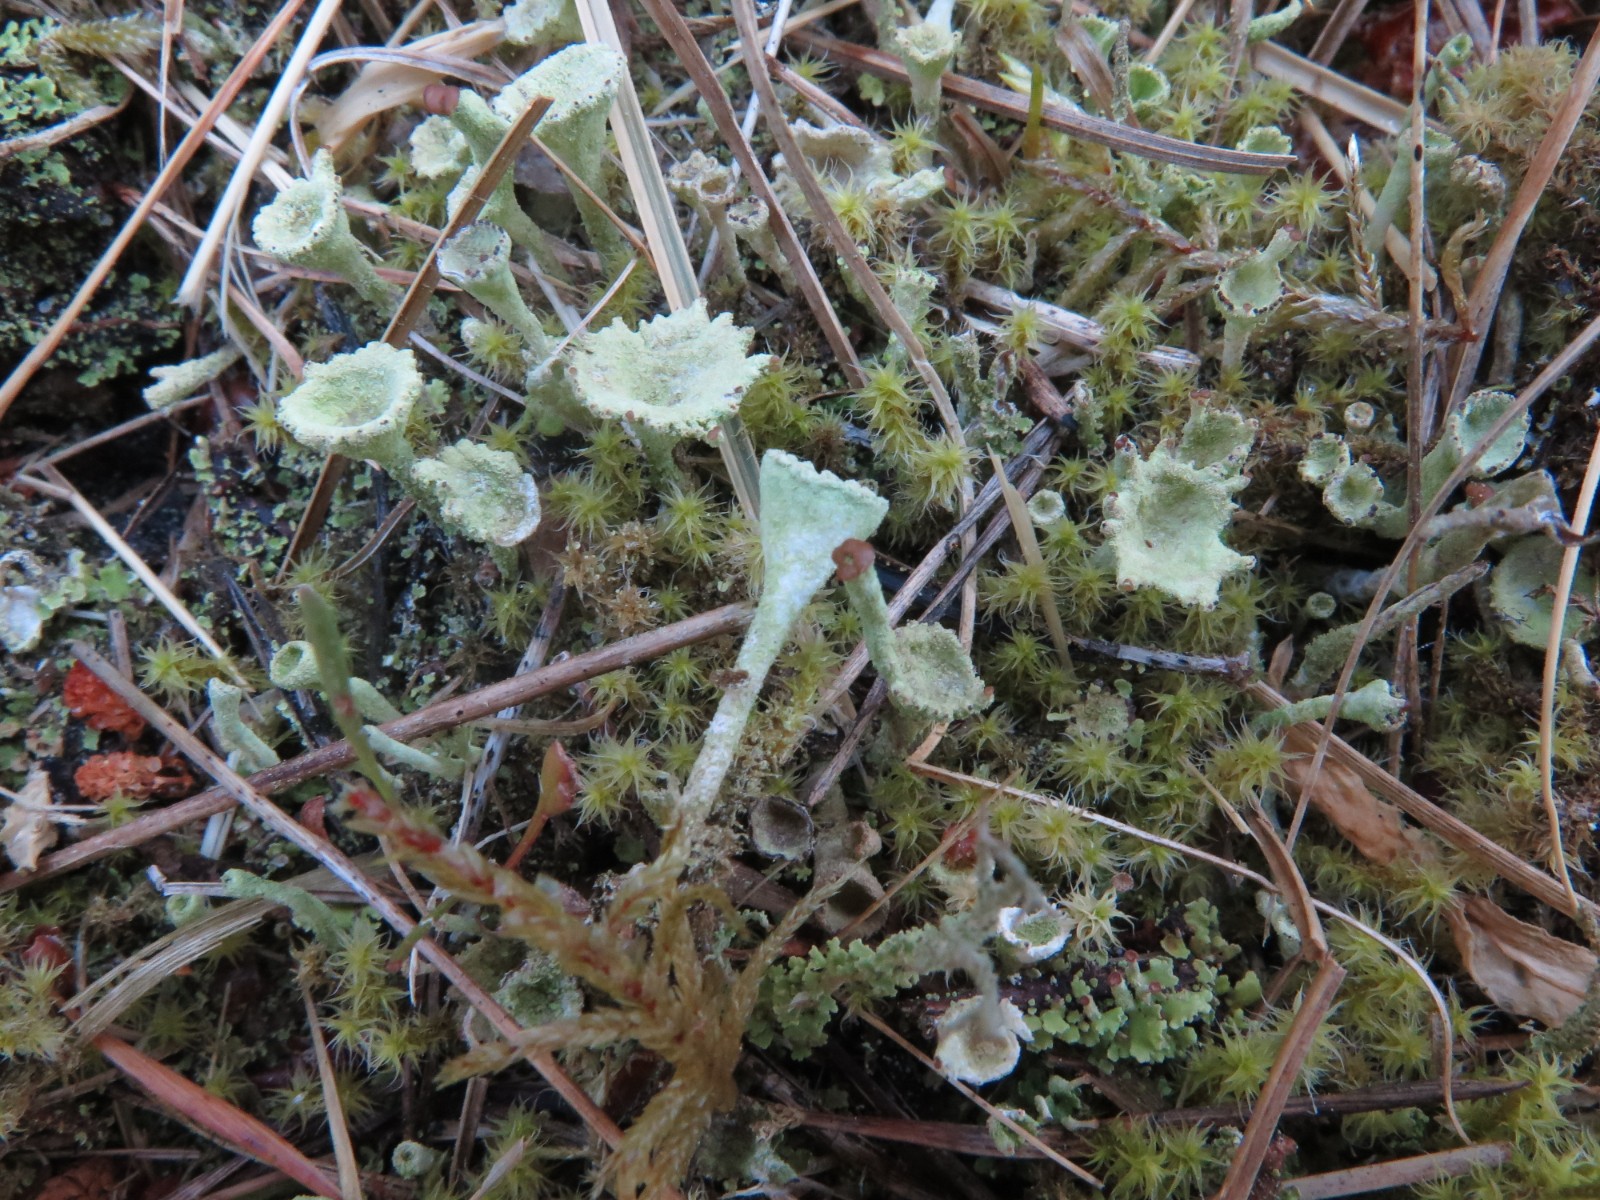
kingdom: Fungi
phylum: Ascomycota
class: Lecanoromycetes
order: Lecanorales
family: Cladoniaceae
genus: Cladonia
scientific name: Cladonia ramulosa
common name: kliddet bægerlav
